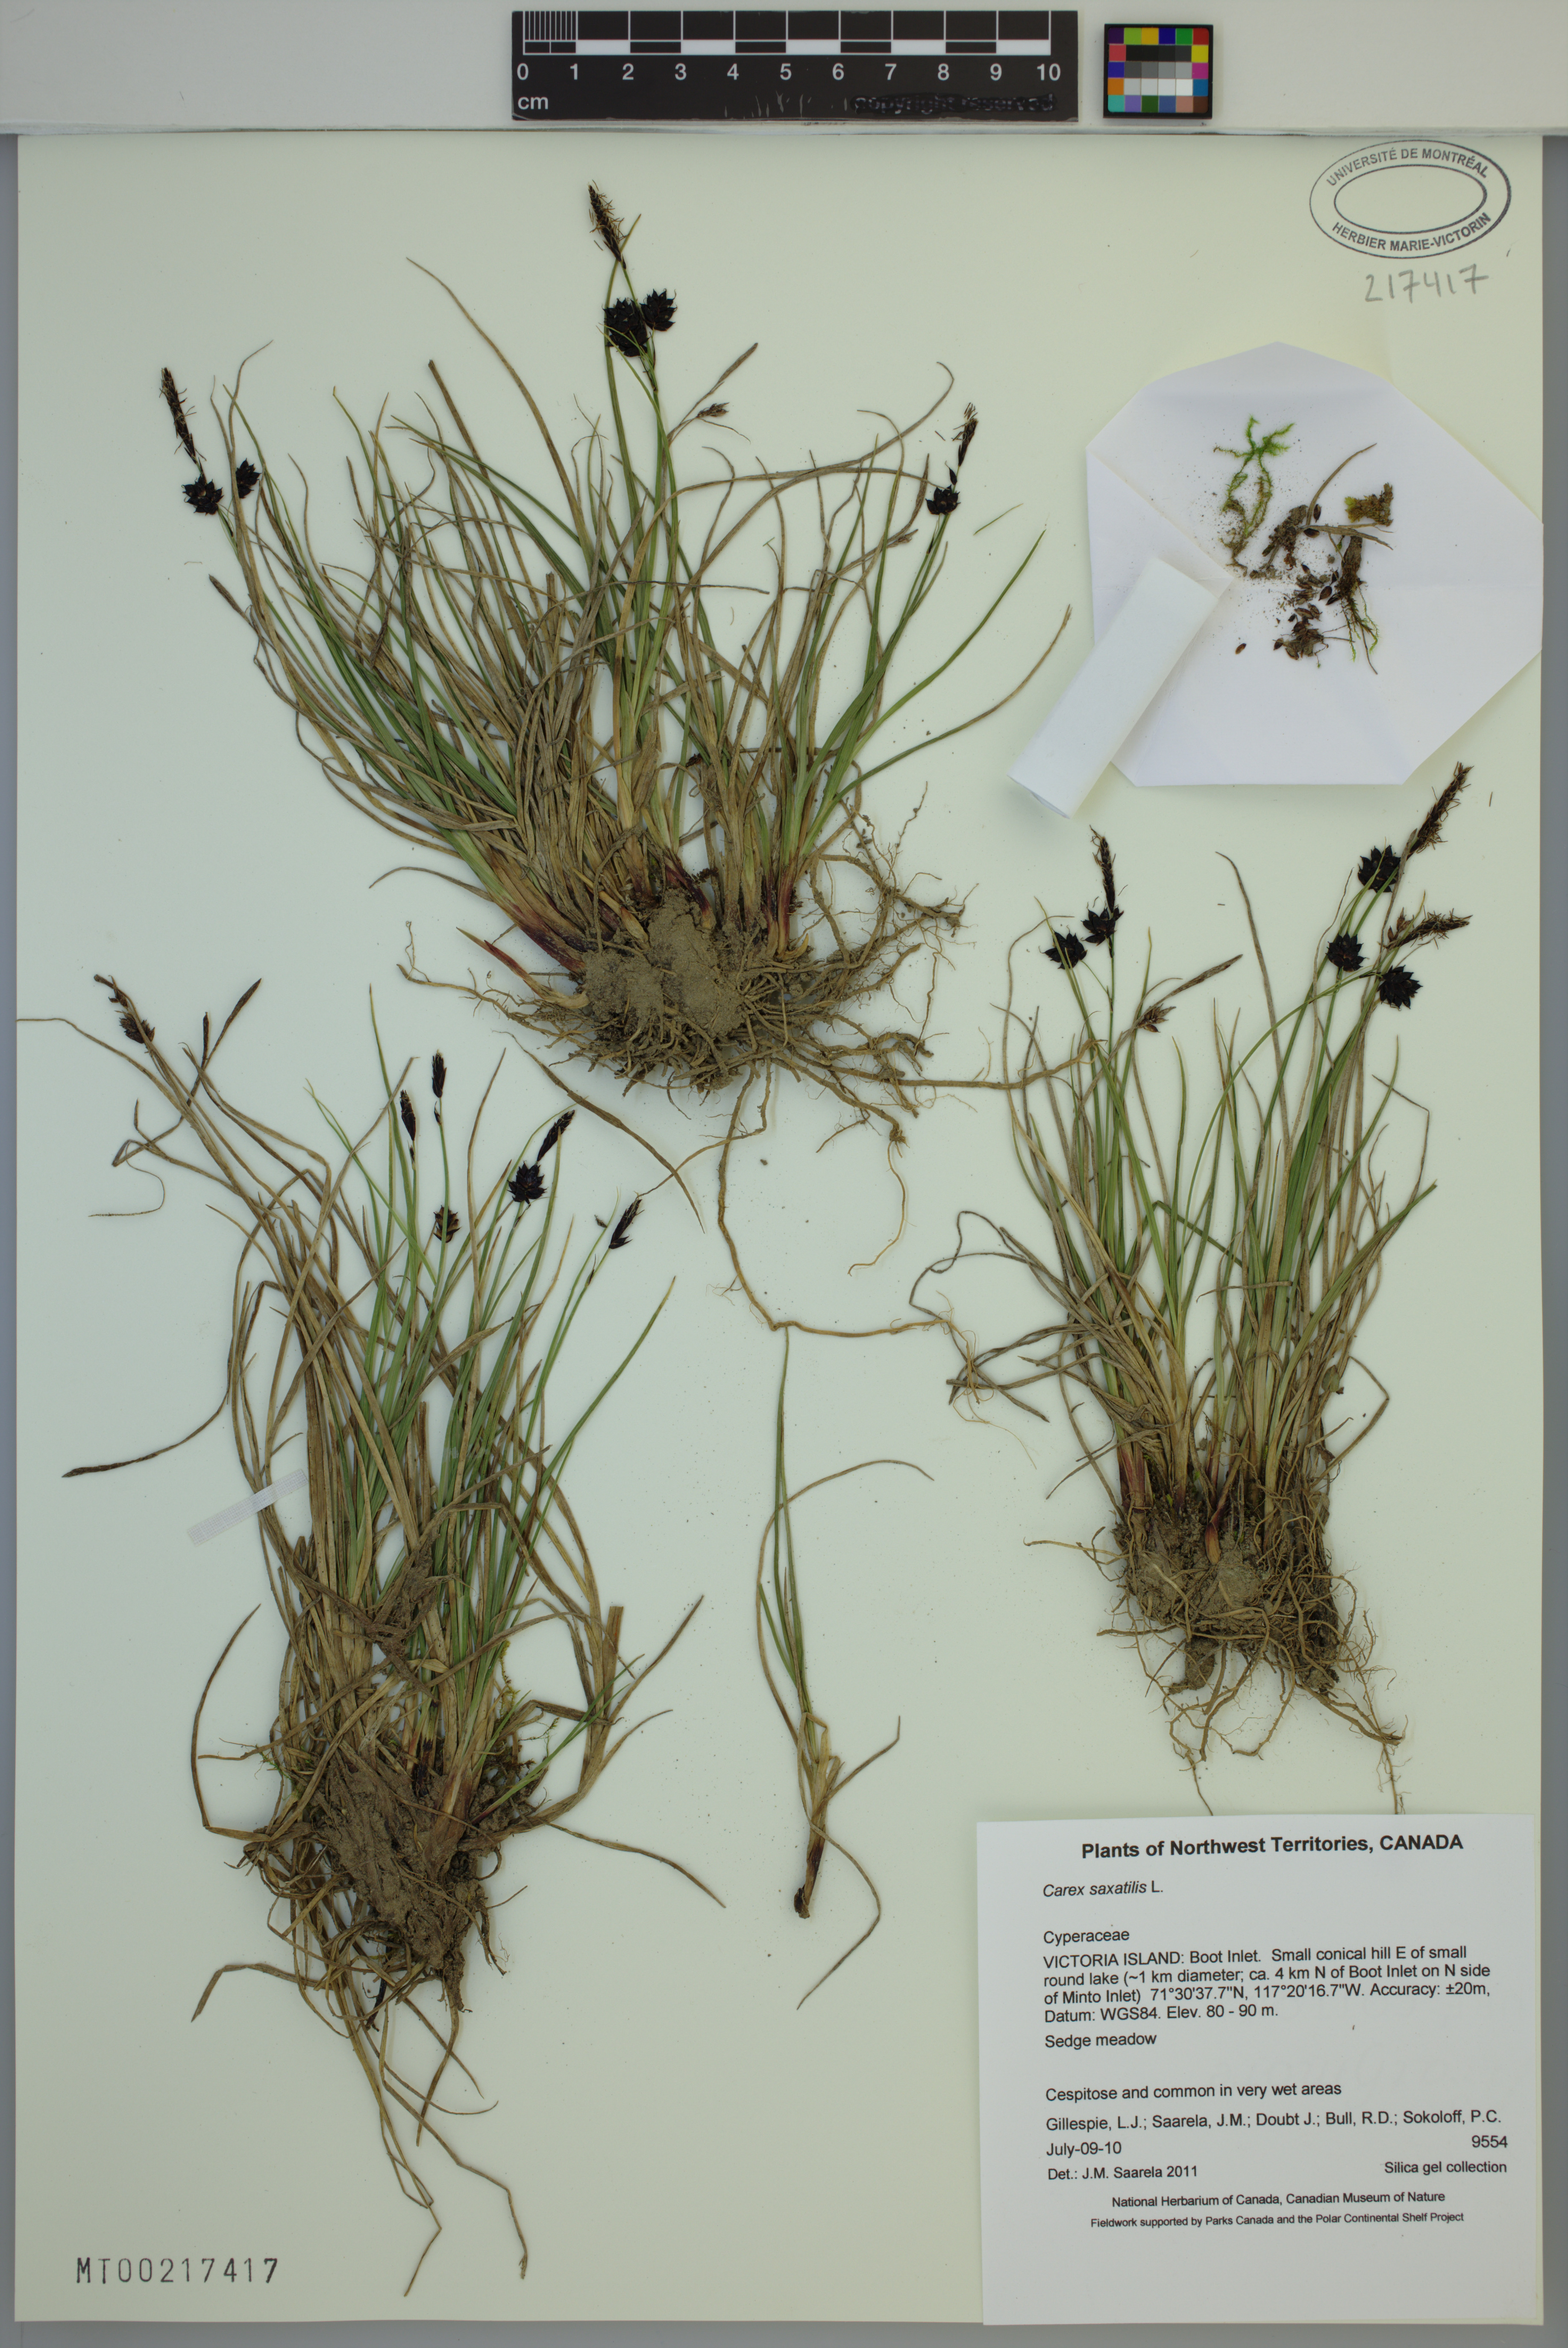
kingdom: Plantae
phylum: Tracheophyta
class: Liliopsida
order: Poales
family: Cyperaceae
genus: Carex
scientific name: Carex saxatilis
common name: Russet sedge
